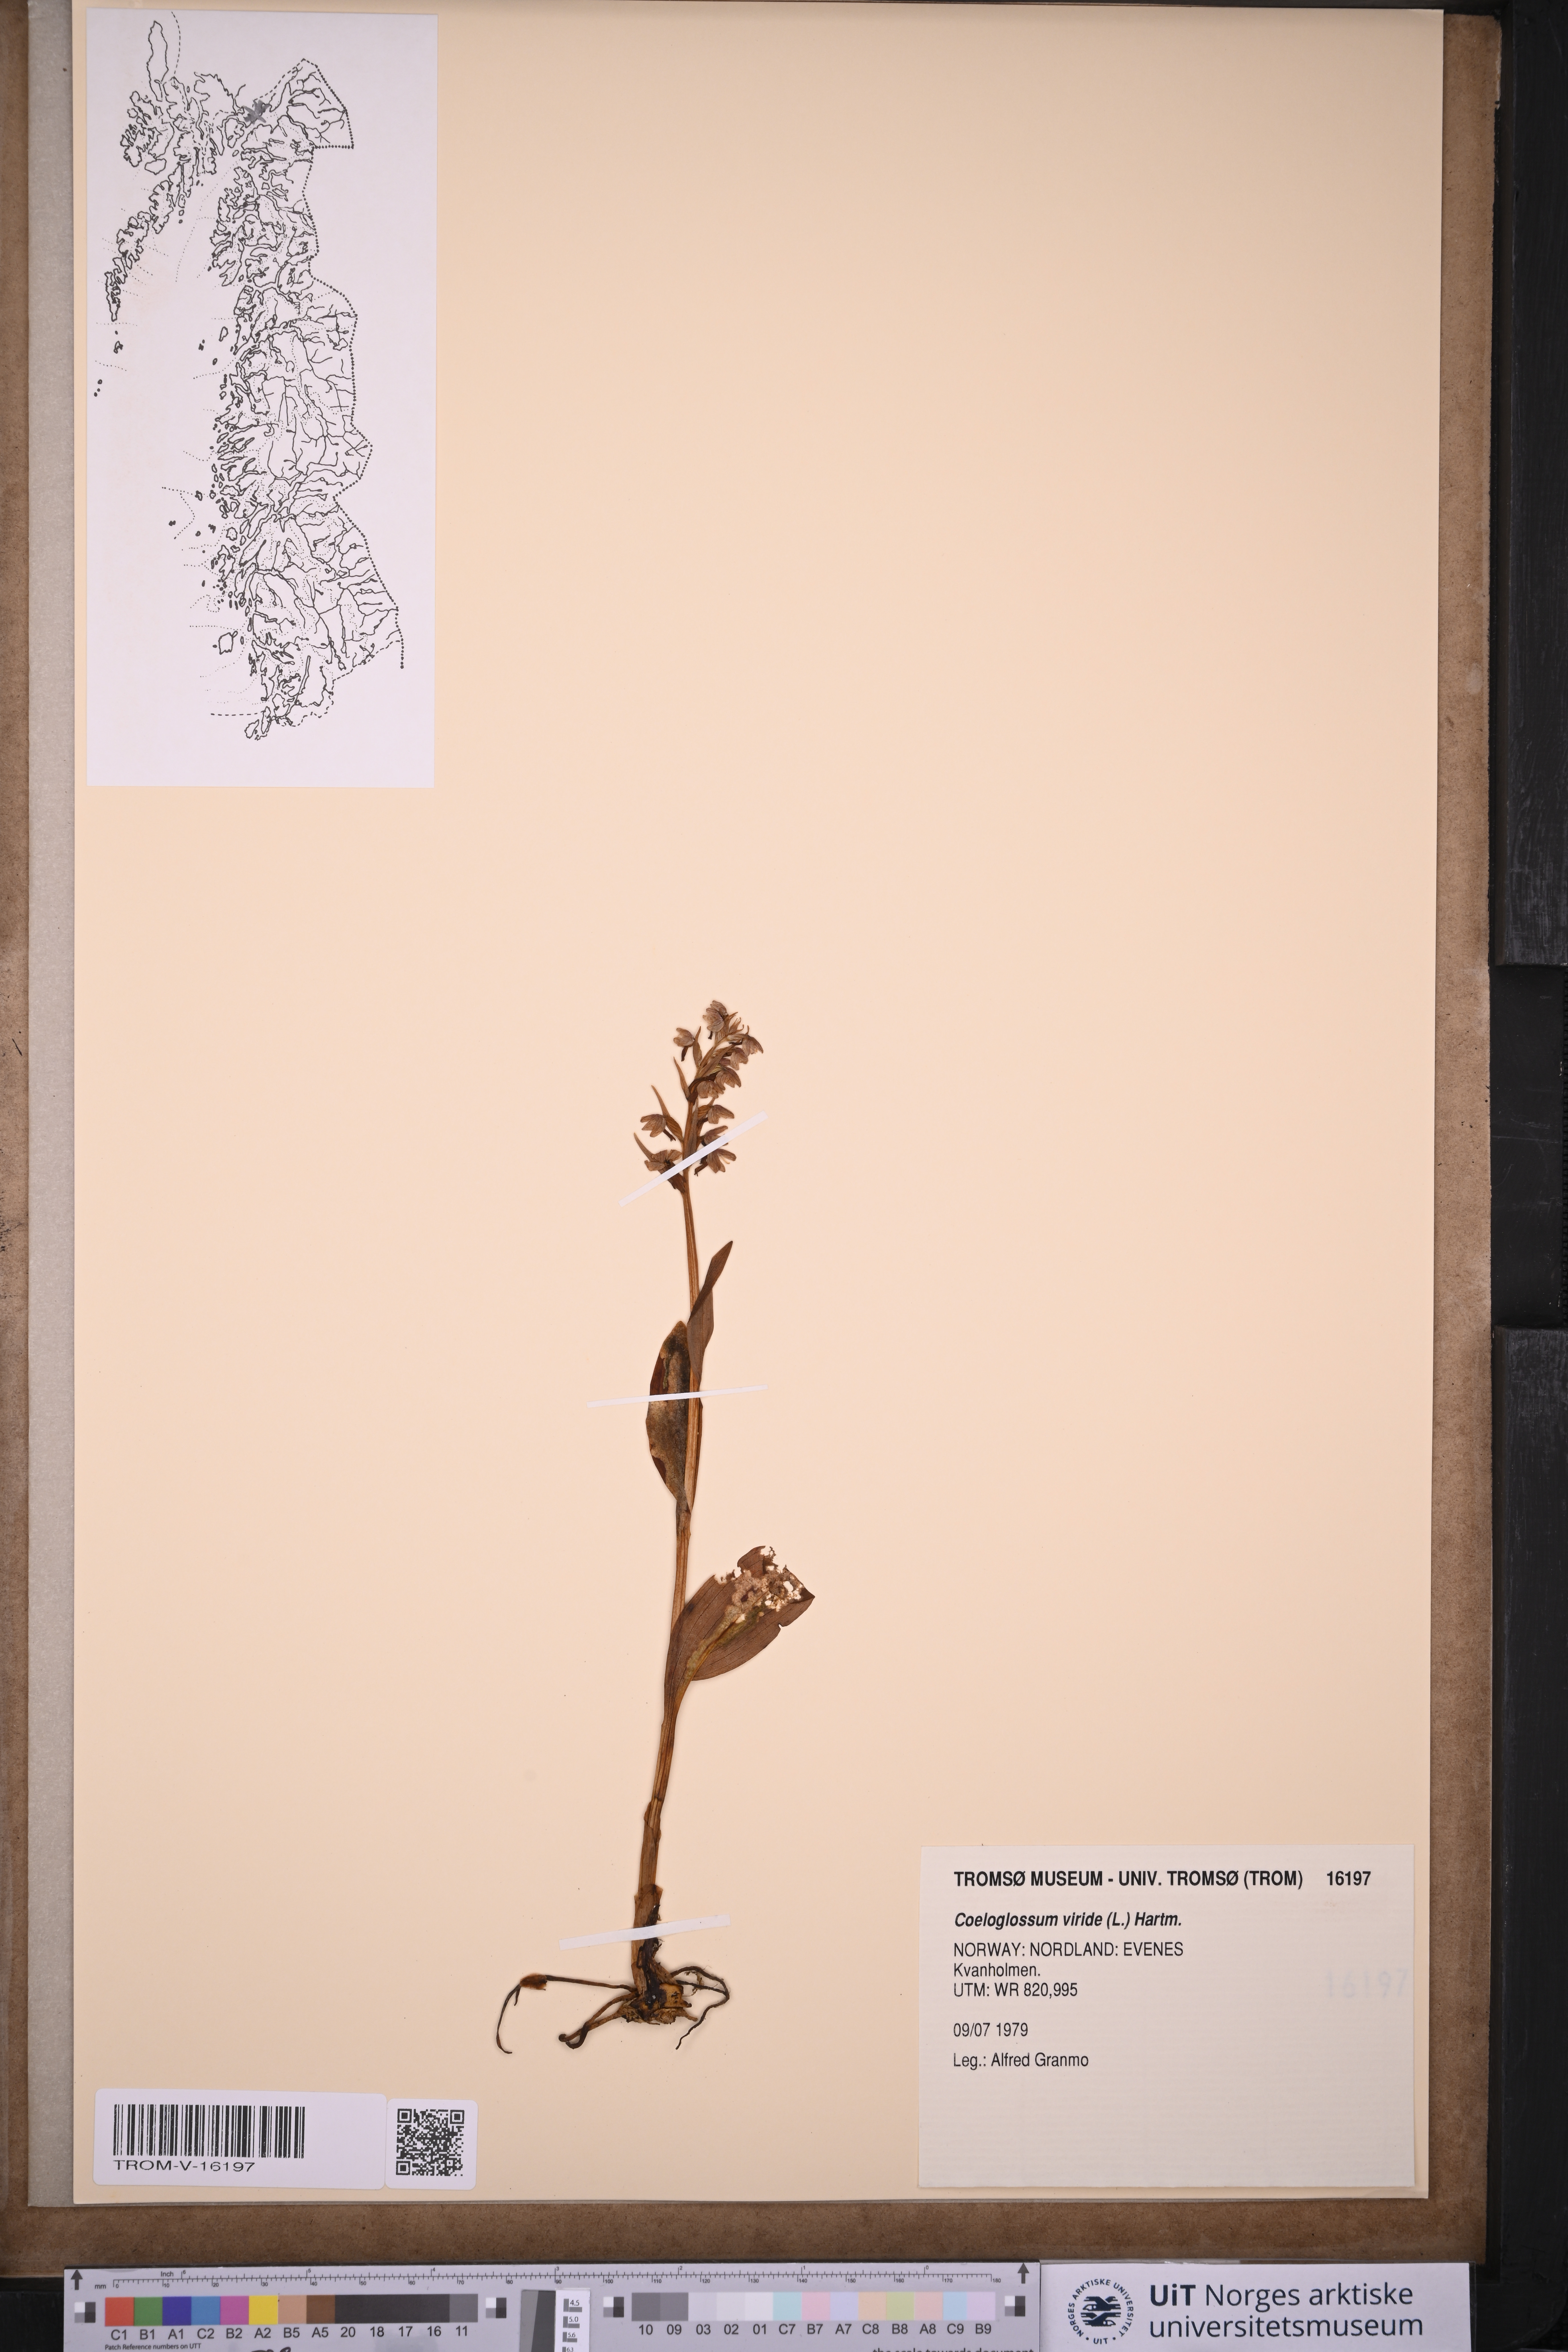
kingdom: Plantae
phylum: Tracheophyta
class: Liliopsida
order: Asparagales
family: Orchidaceae
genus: Dactylorhiza
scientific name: Dactylorhiza viridis
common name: Longbract frog orchid
